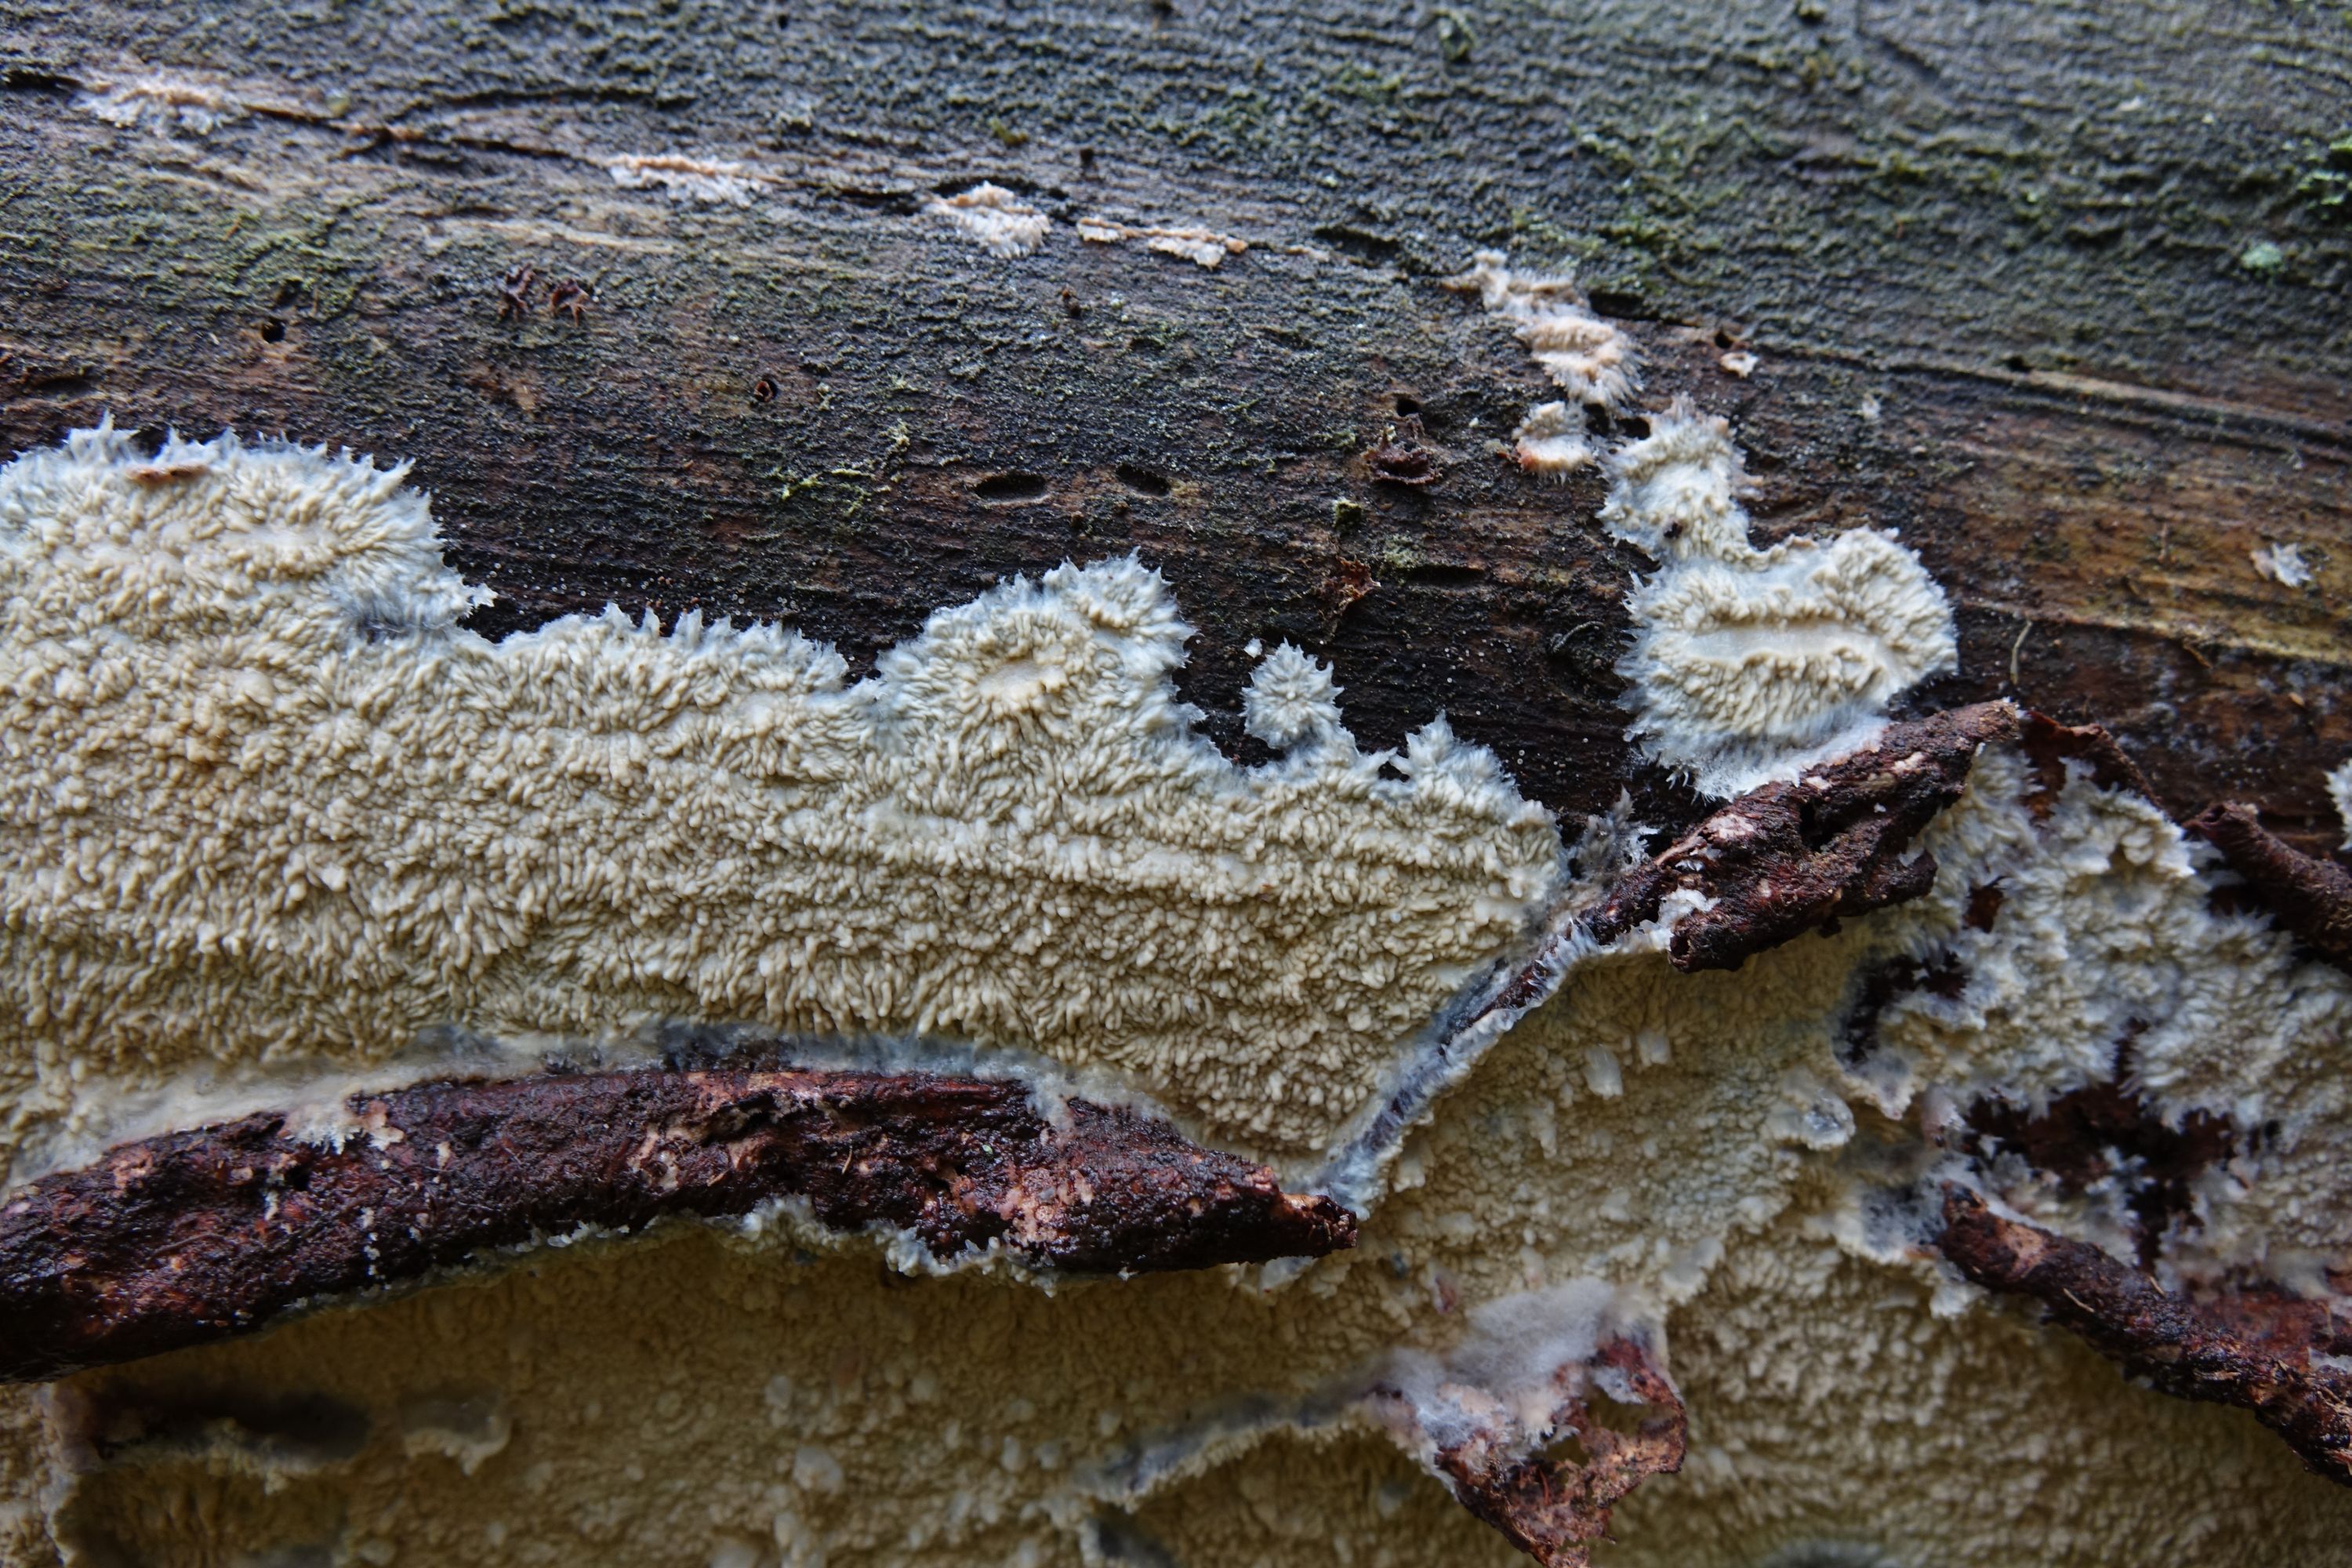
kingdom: Fungi
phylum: Basidiomycota
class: Agaricomycetes
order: Polyporales
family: Meruliaceae
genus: Hermanssonia
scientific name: Hermanssonia centrifuga
